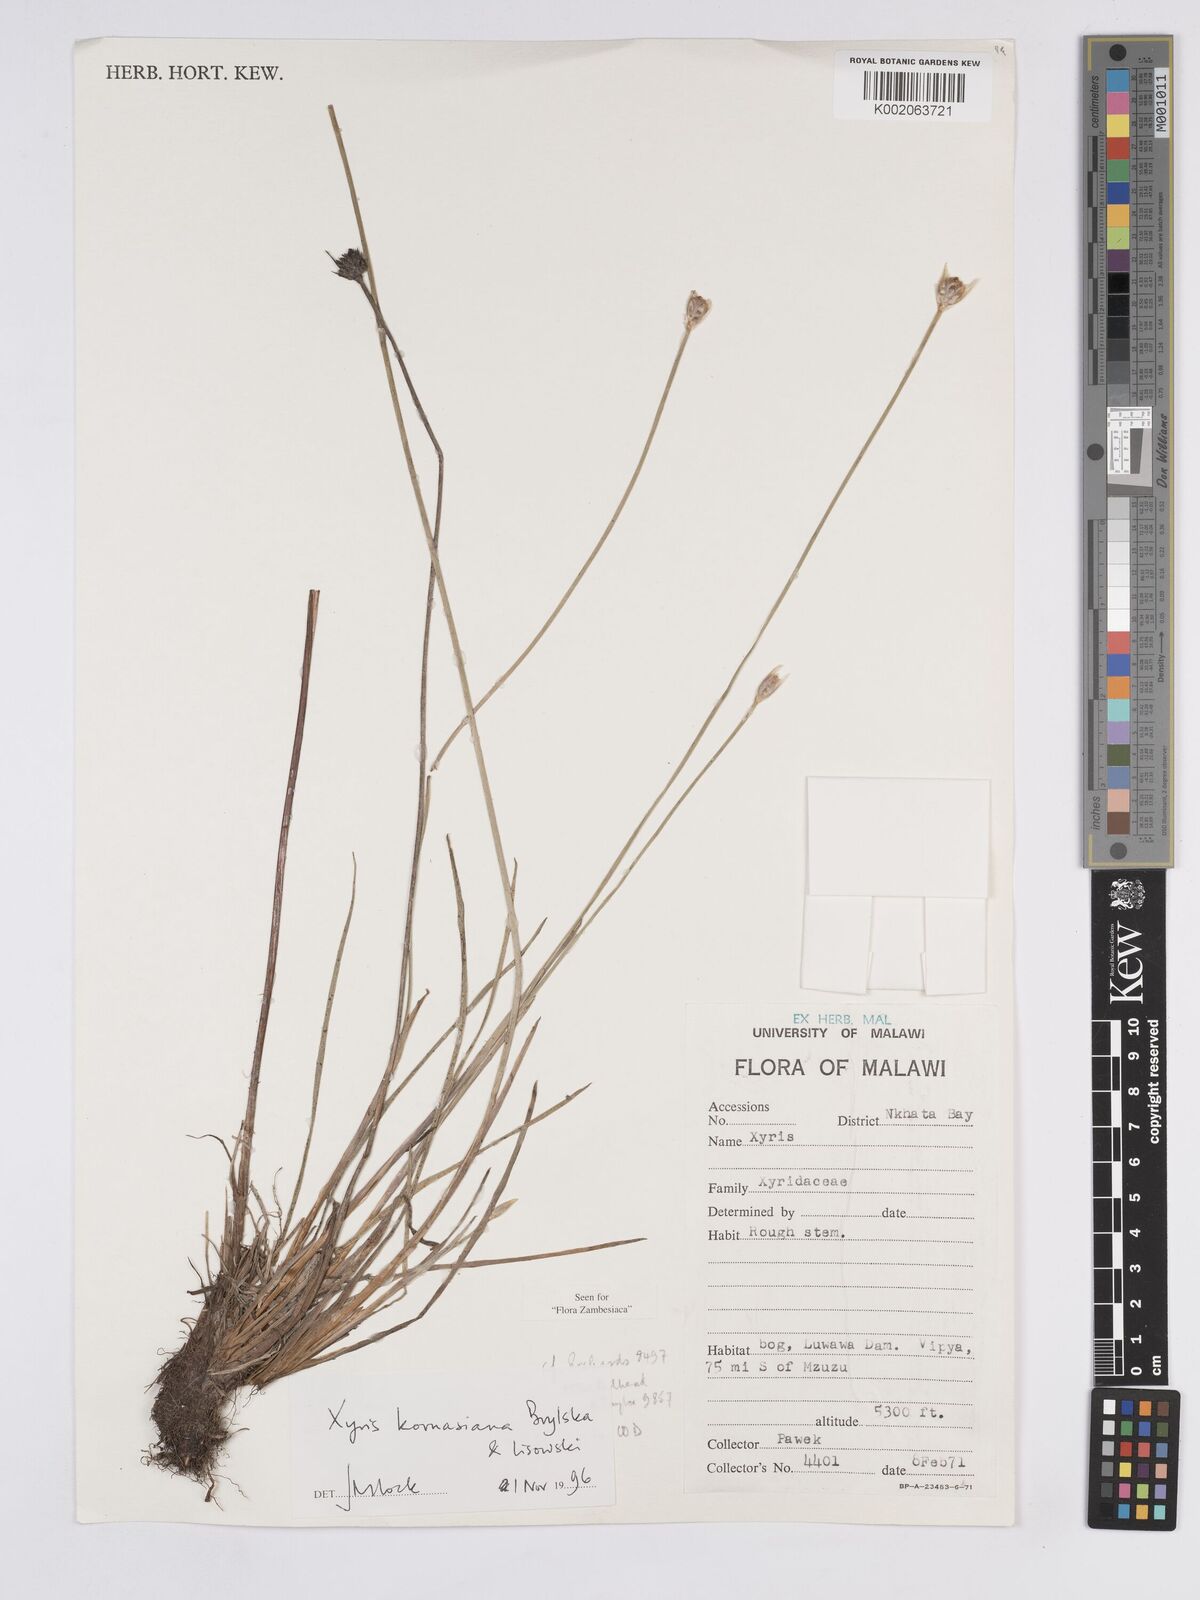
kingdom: Plantae
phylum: Tracheophyta
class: Liliopsida
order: Poales
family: Xyridaceae
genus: Xyris
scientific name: Xyris kornasiana
